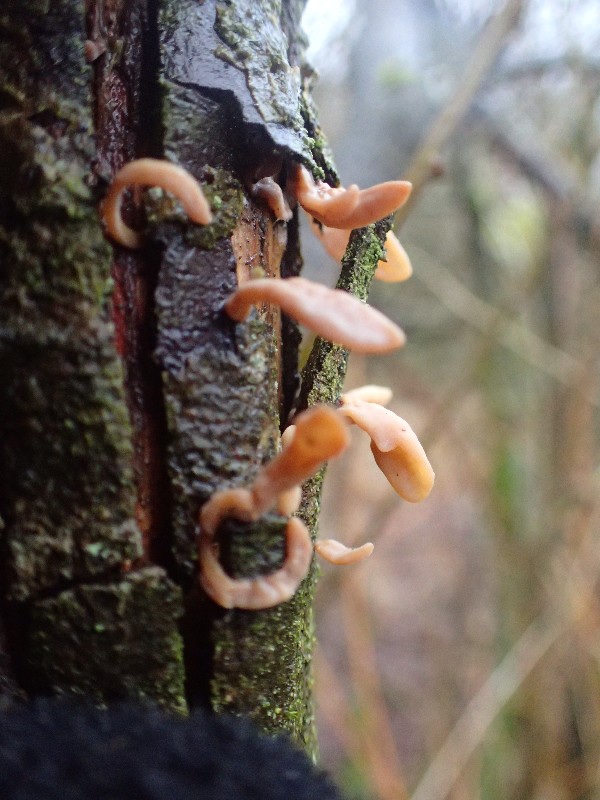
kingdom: Fungi
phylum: Basidiomycota
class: Agaricomycetes
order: Agaricales
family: Typhulaceae
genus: Typhula
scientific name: Typhula contorta
